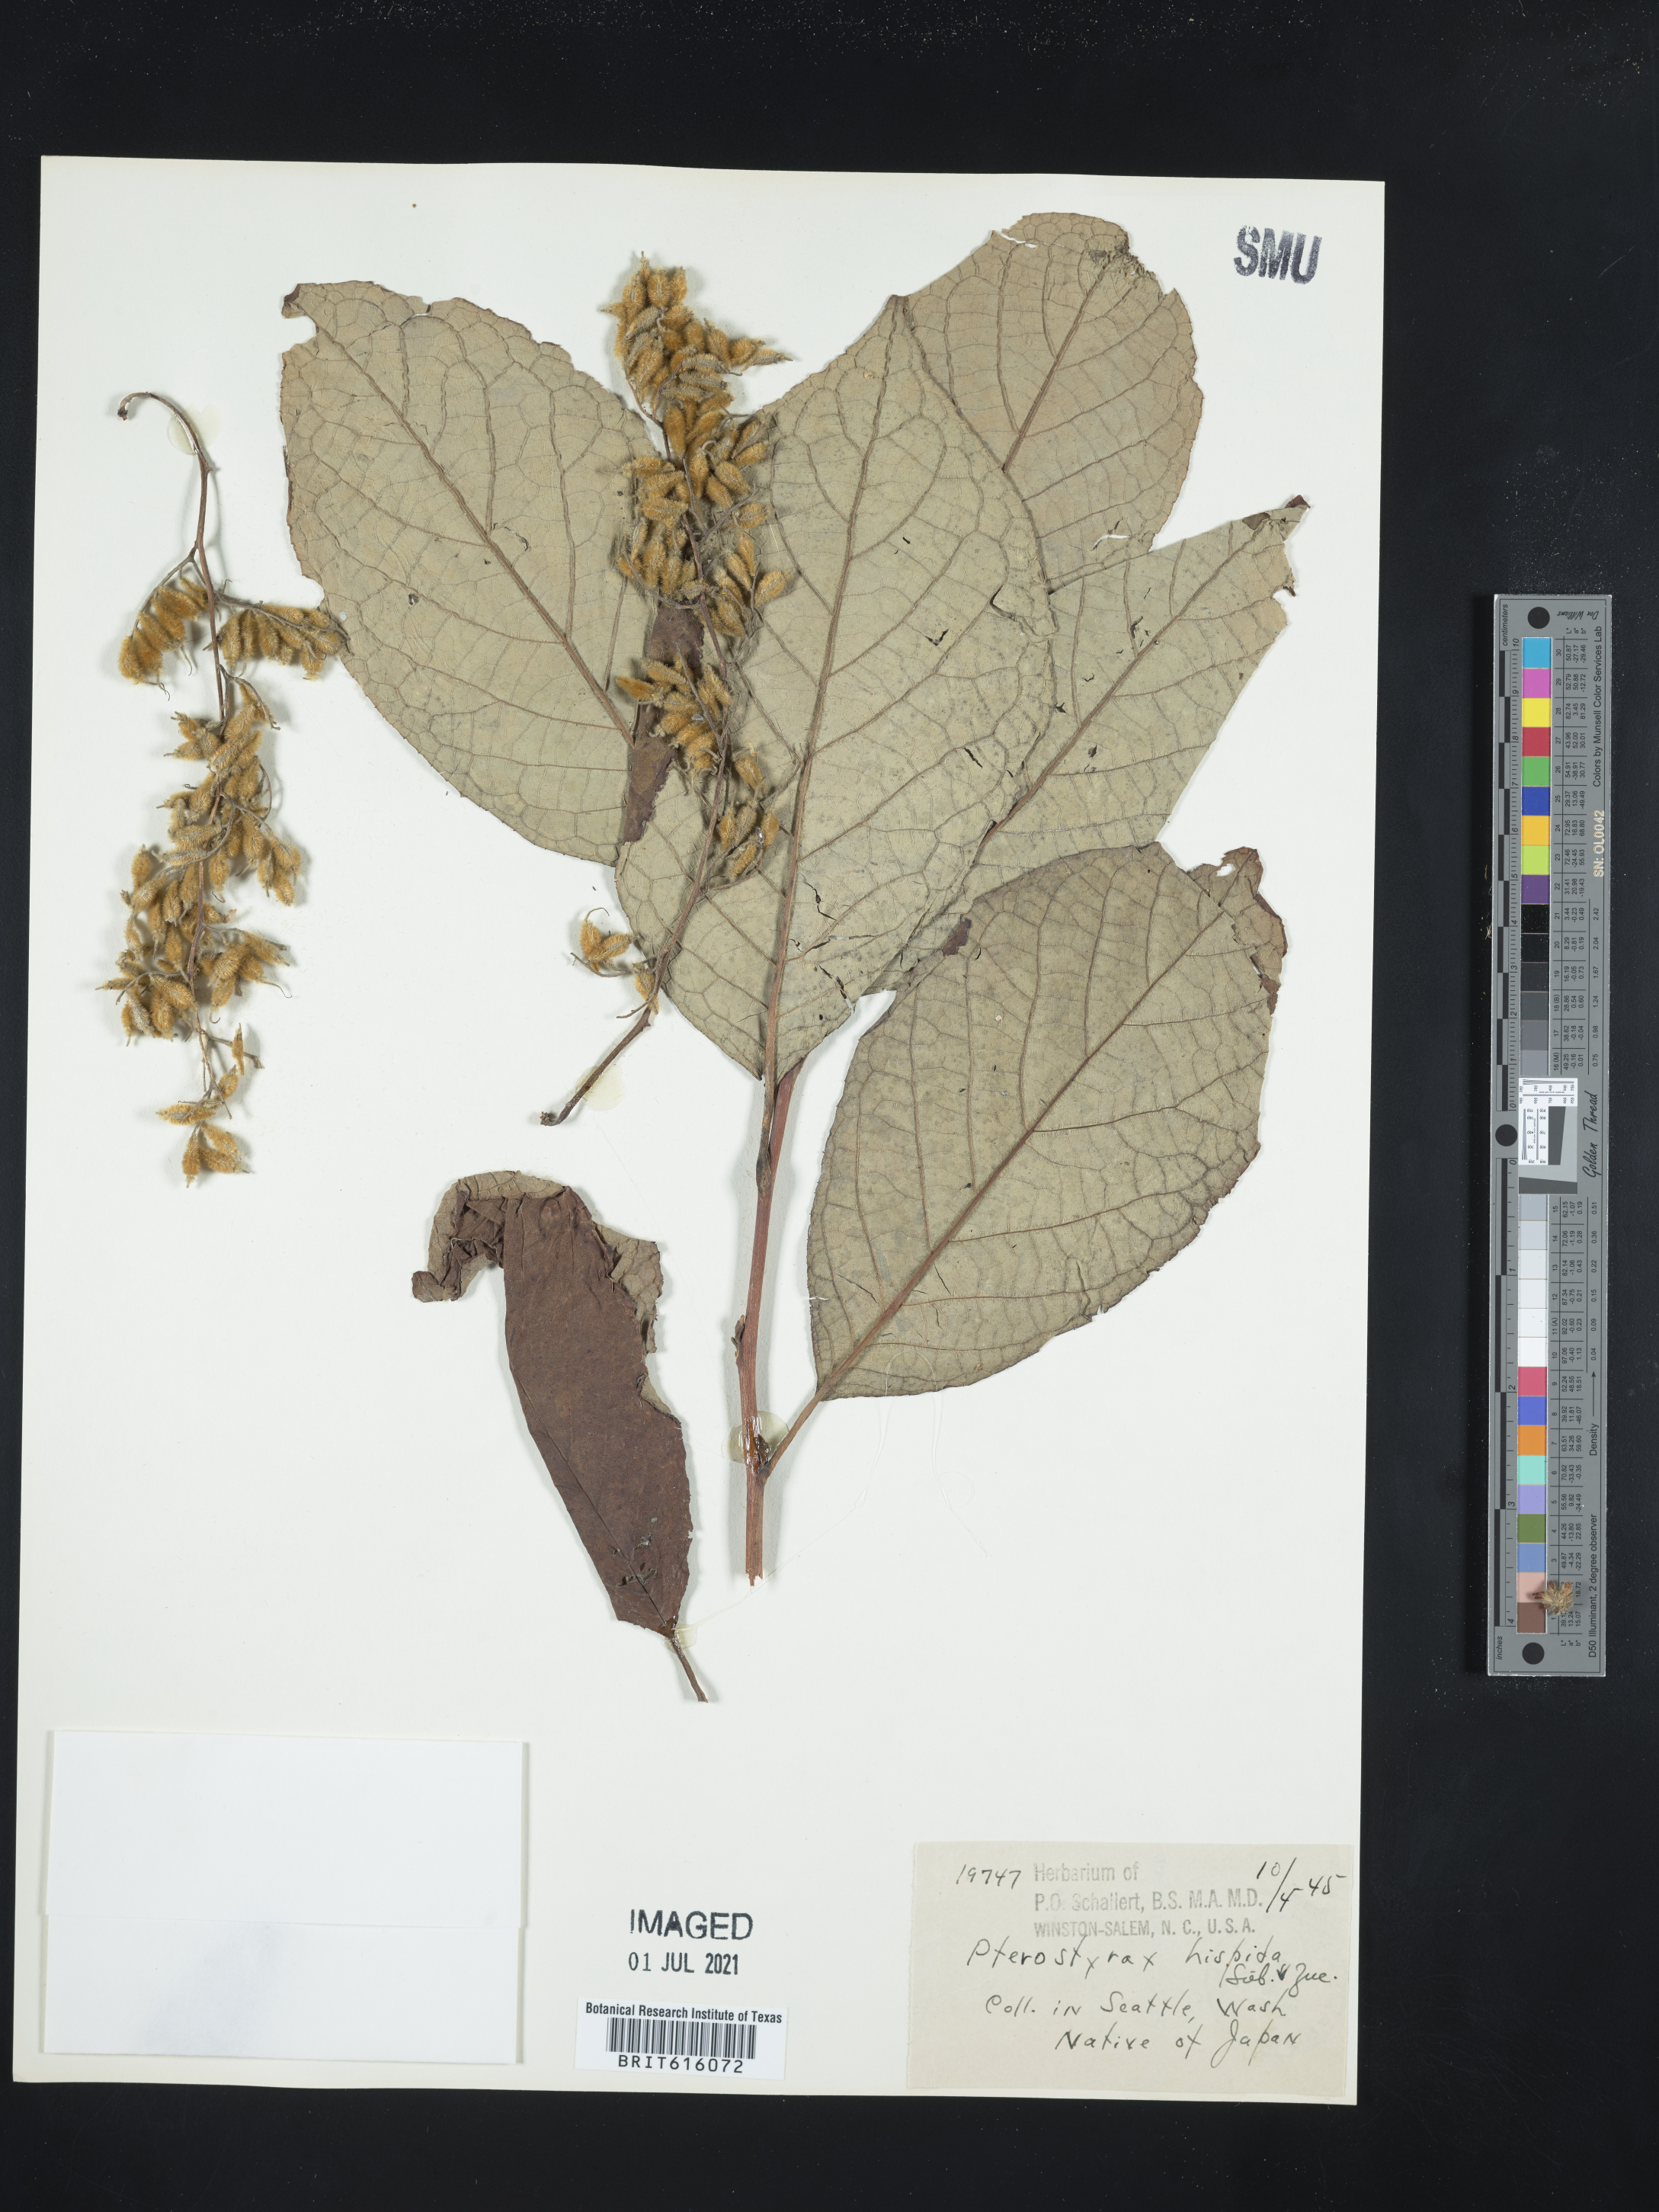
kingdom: Plantae
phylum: Tracheophyta
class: Magnoliopsida
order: Ericales
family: Styracaceae
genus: Pterostyrax
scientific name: Pterostyrax hispidus
